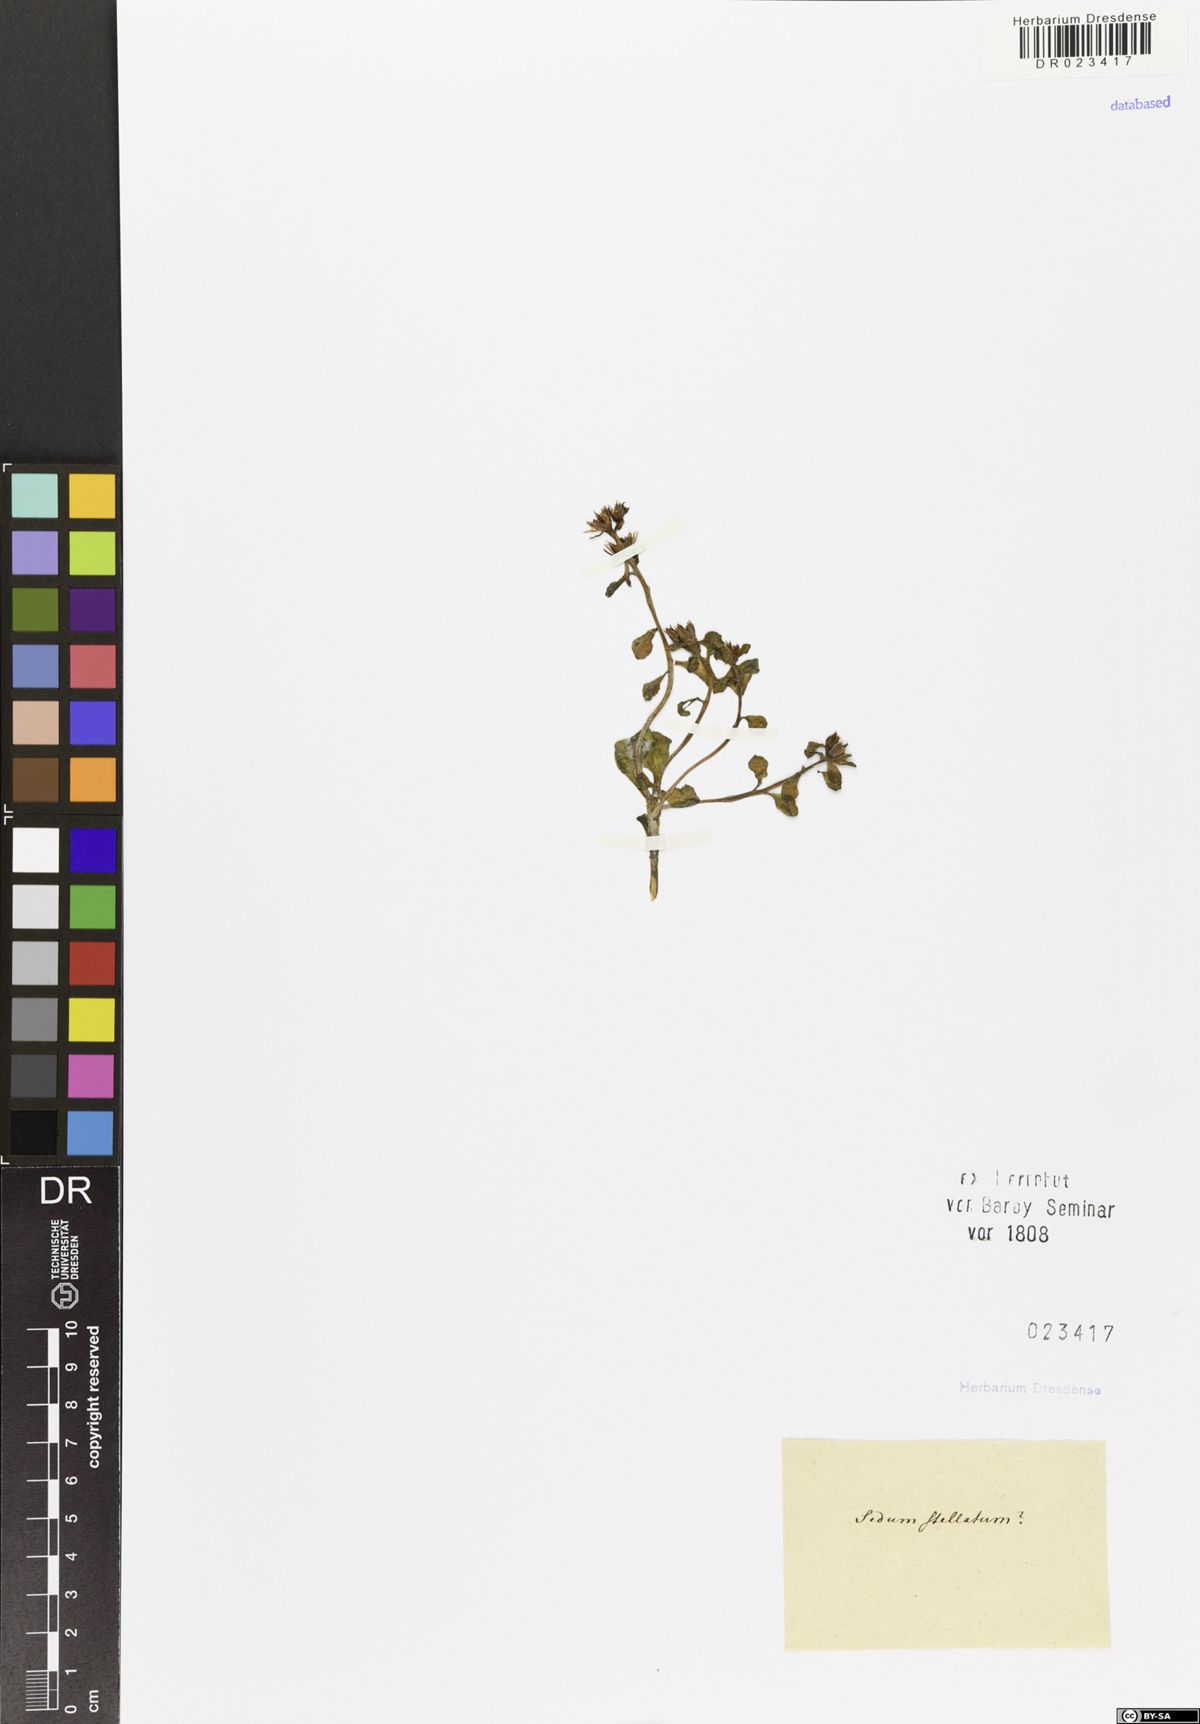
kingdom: Plantae
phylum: Tracheophyta
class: Magnoliopsida
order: Saxifragales
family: Crassulaceae
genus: Phedimus
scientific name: Phedimus stellatus
